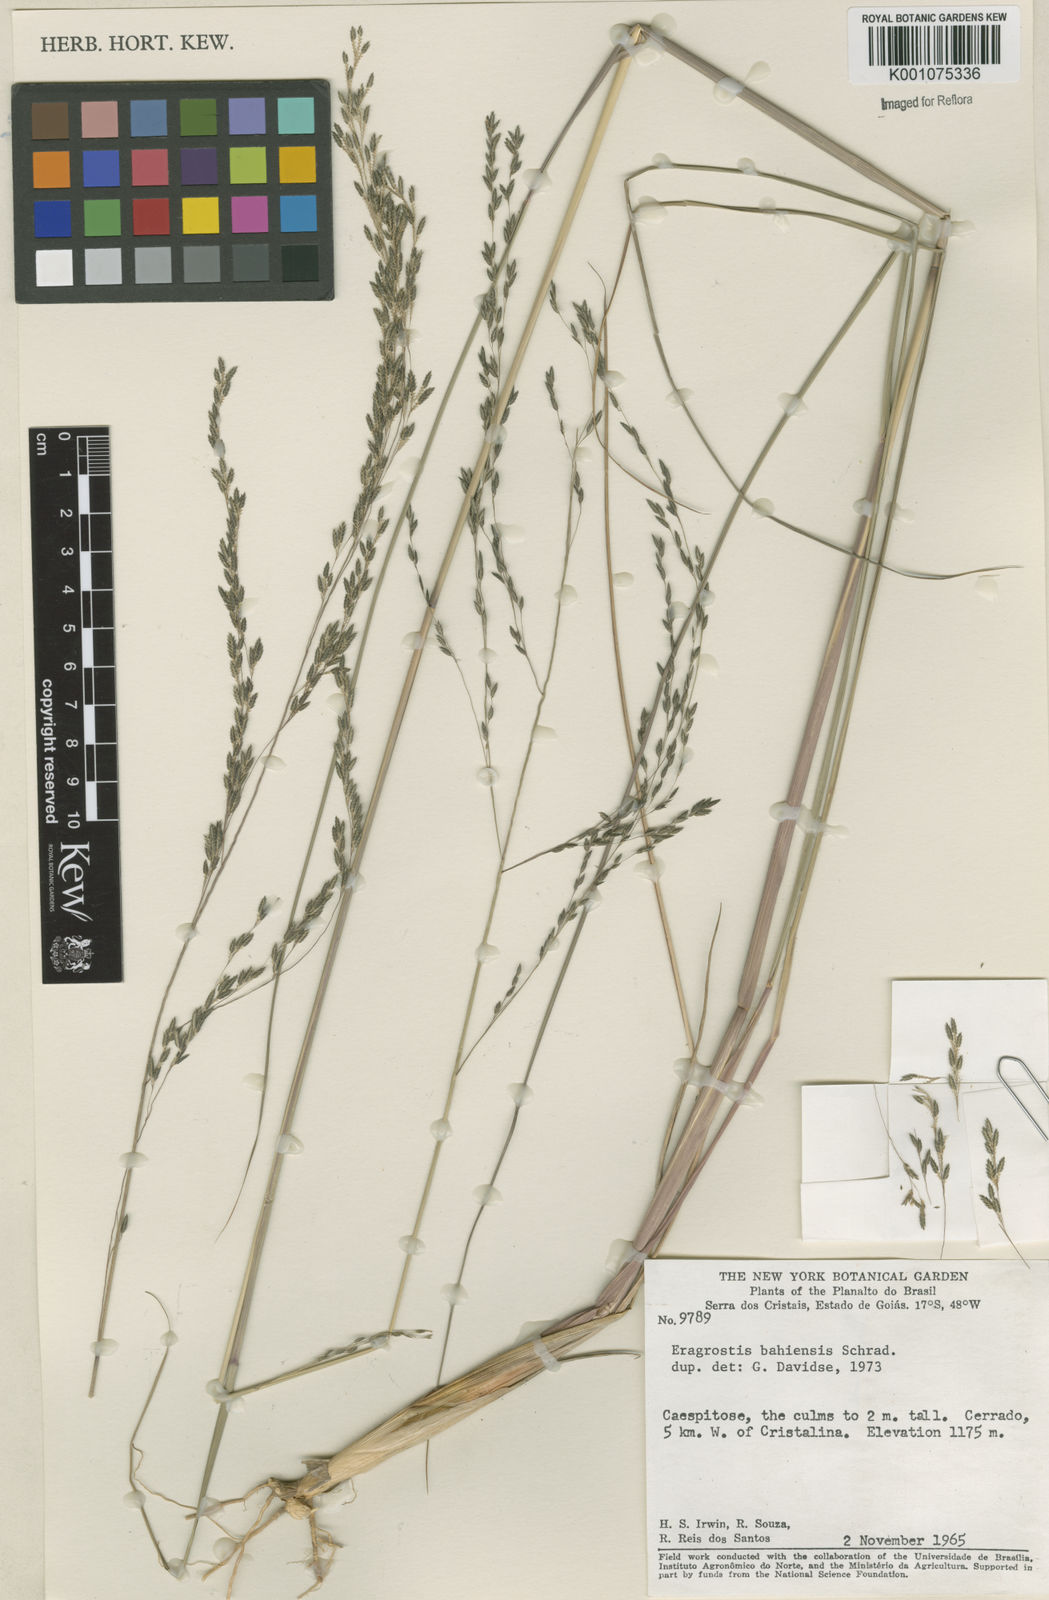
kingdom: Plantae
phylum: Tracheophyta
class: Liliopsida
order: Poales
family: Poaceae
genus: Eragrostis
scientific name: Eragrostis bahiensis
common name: Bahia lovegrass
